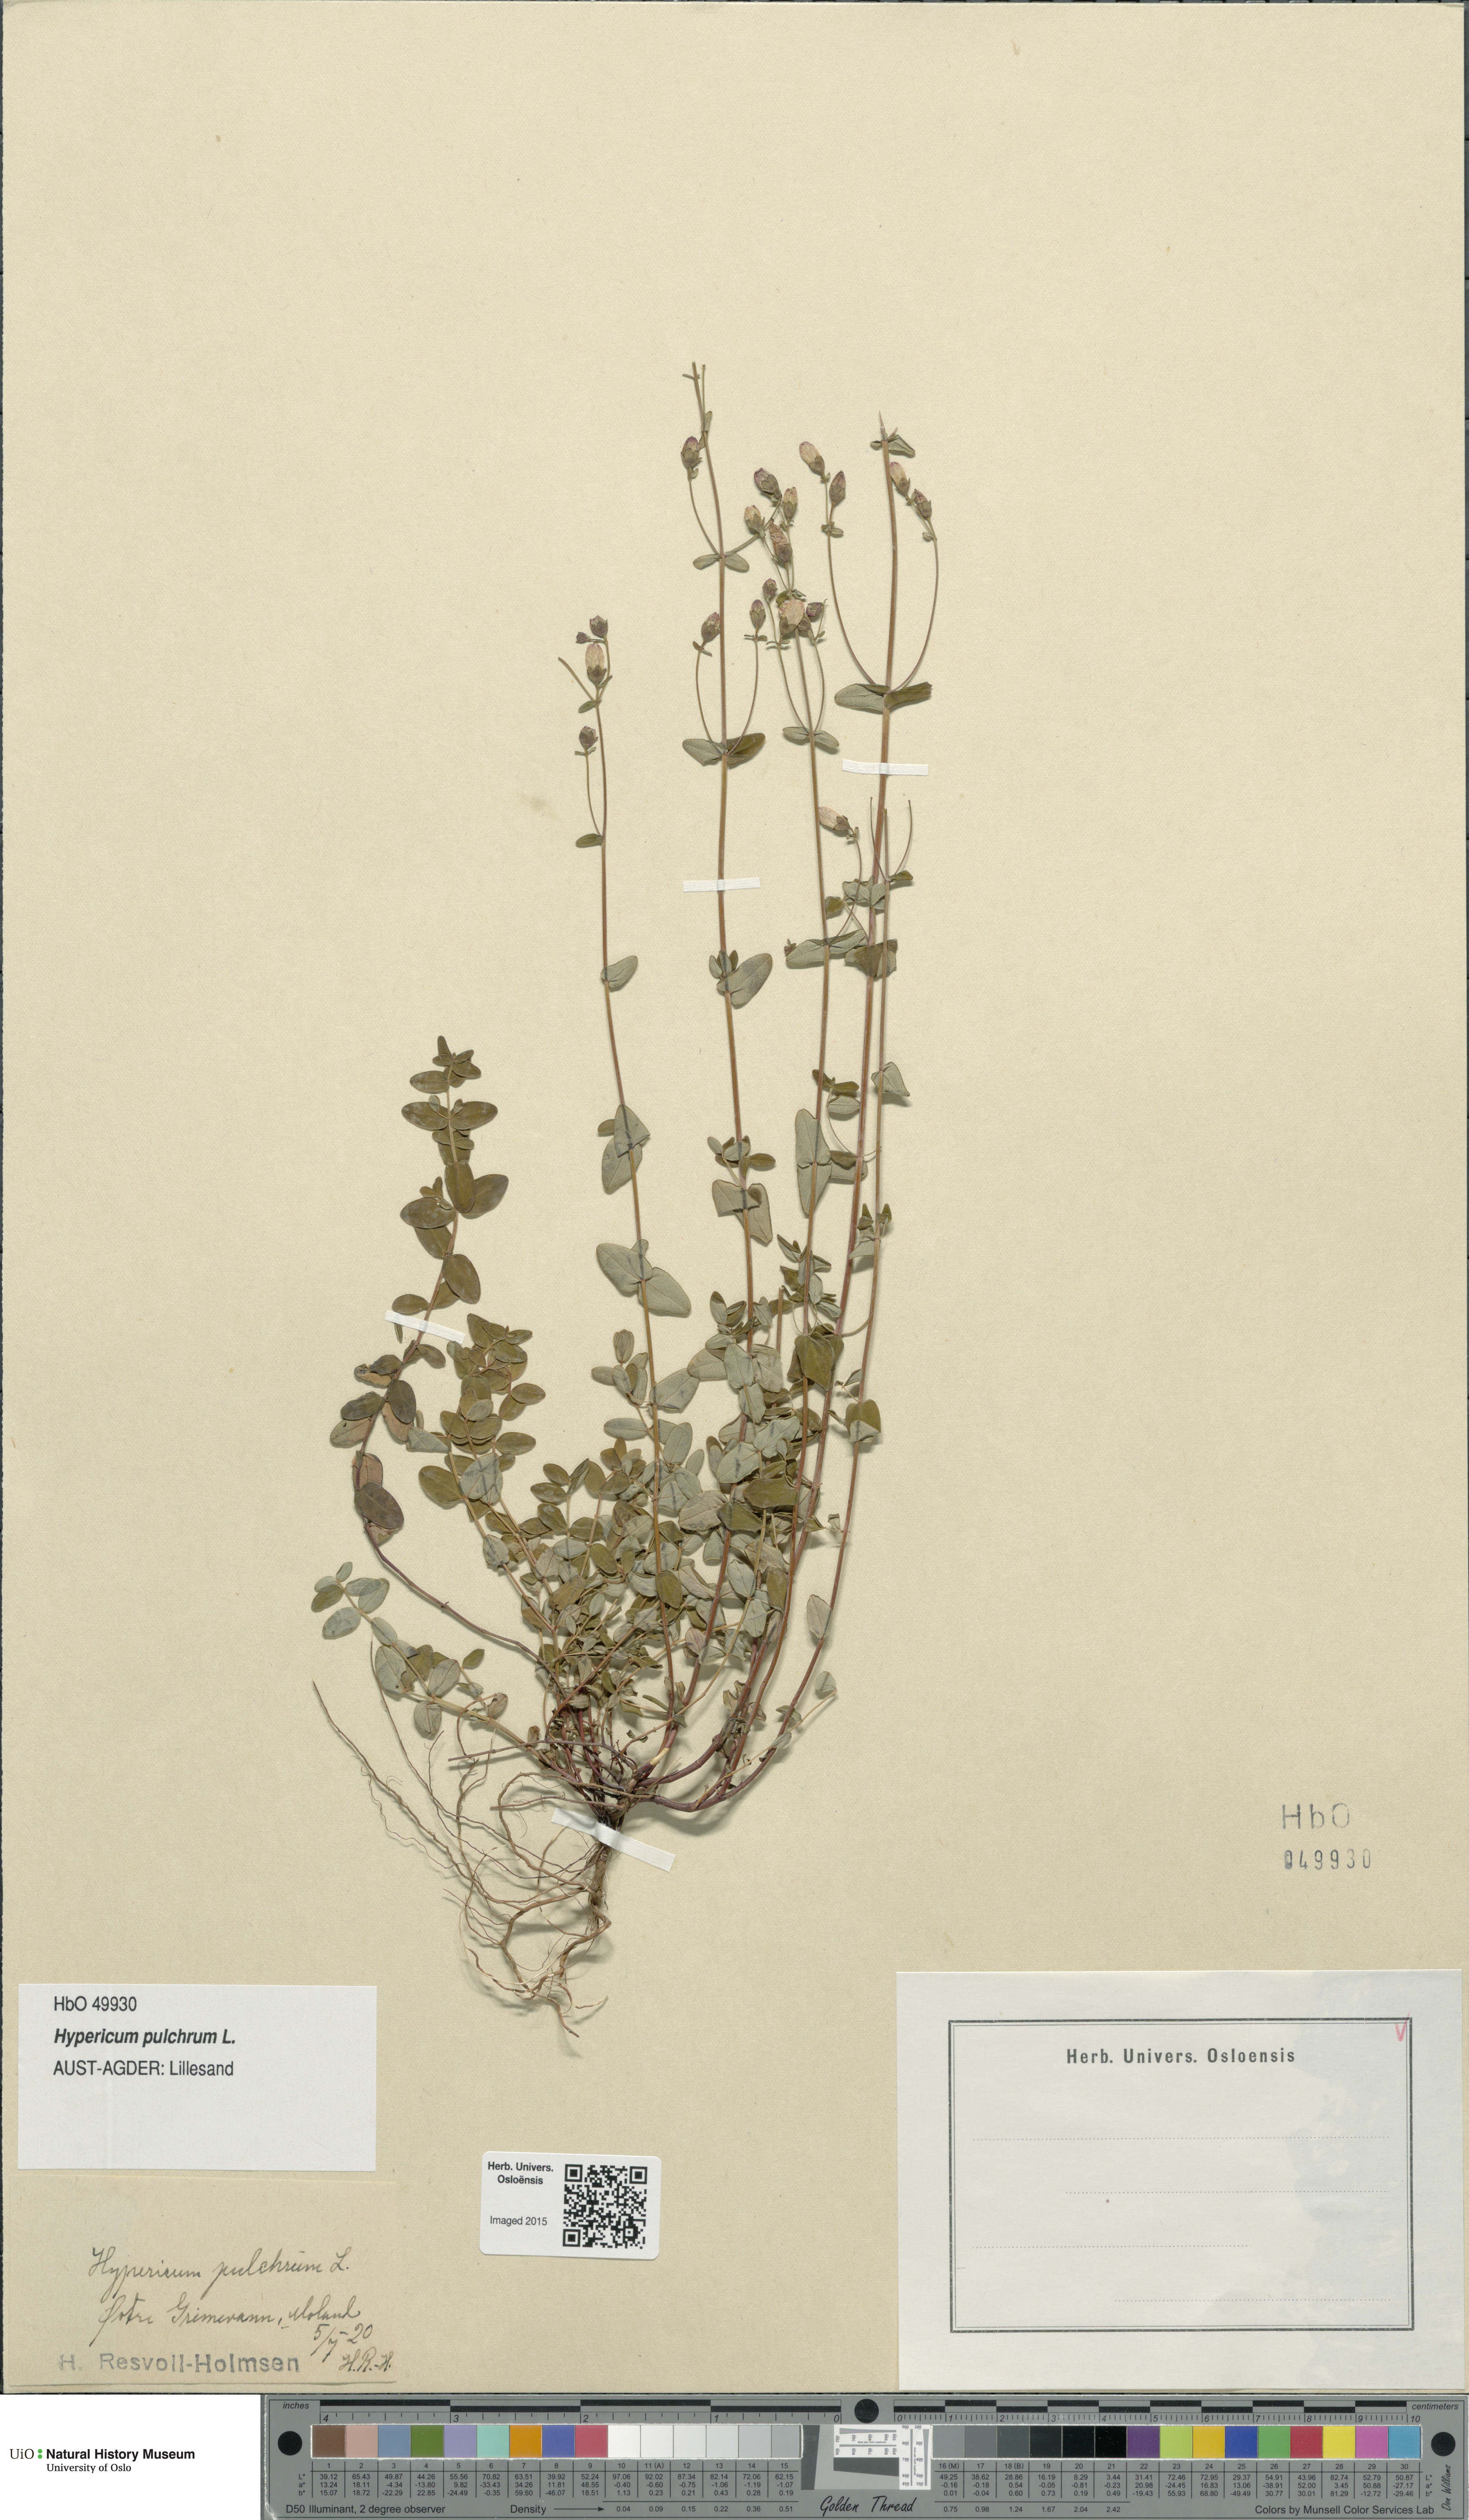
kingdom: Plantae
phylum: Tracheophyta
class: Magnoliopsida
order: Malpighiales
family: Hypericaceae
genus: Hypericum
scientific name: Hypericum pulchrum
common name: Slender st. john's-wort
